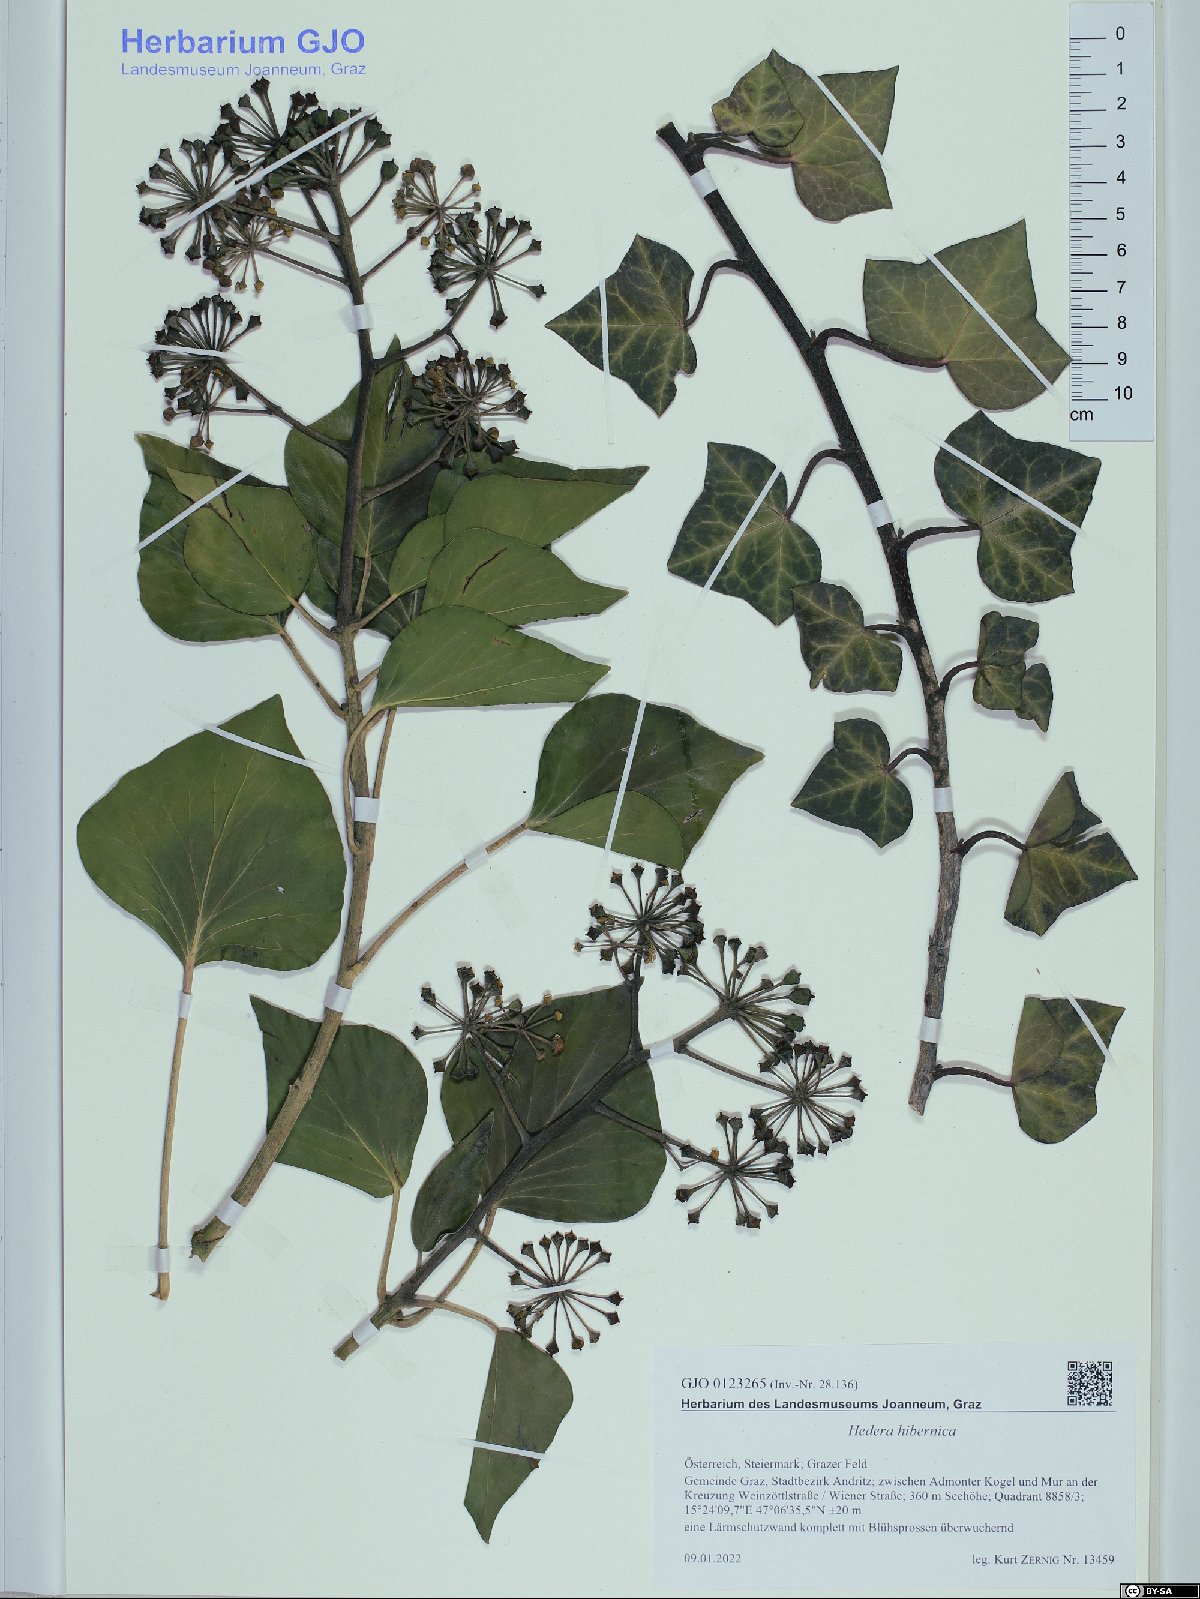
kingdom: Plantae
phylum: Tracheophyta
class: Magnoliopsida
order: Apiales
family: Araliaceae
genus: Hedera
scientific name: Hedera hibernica
